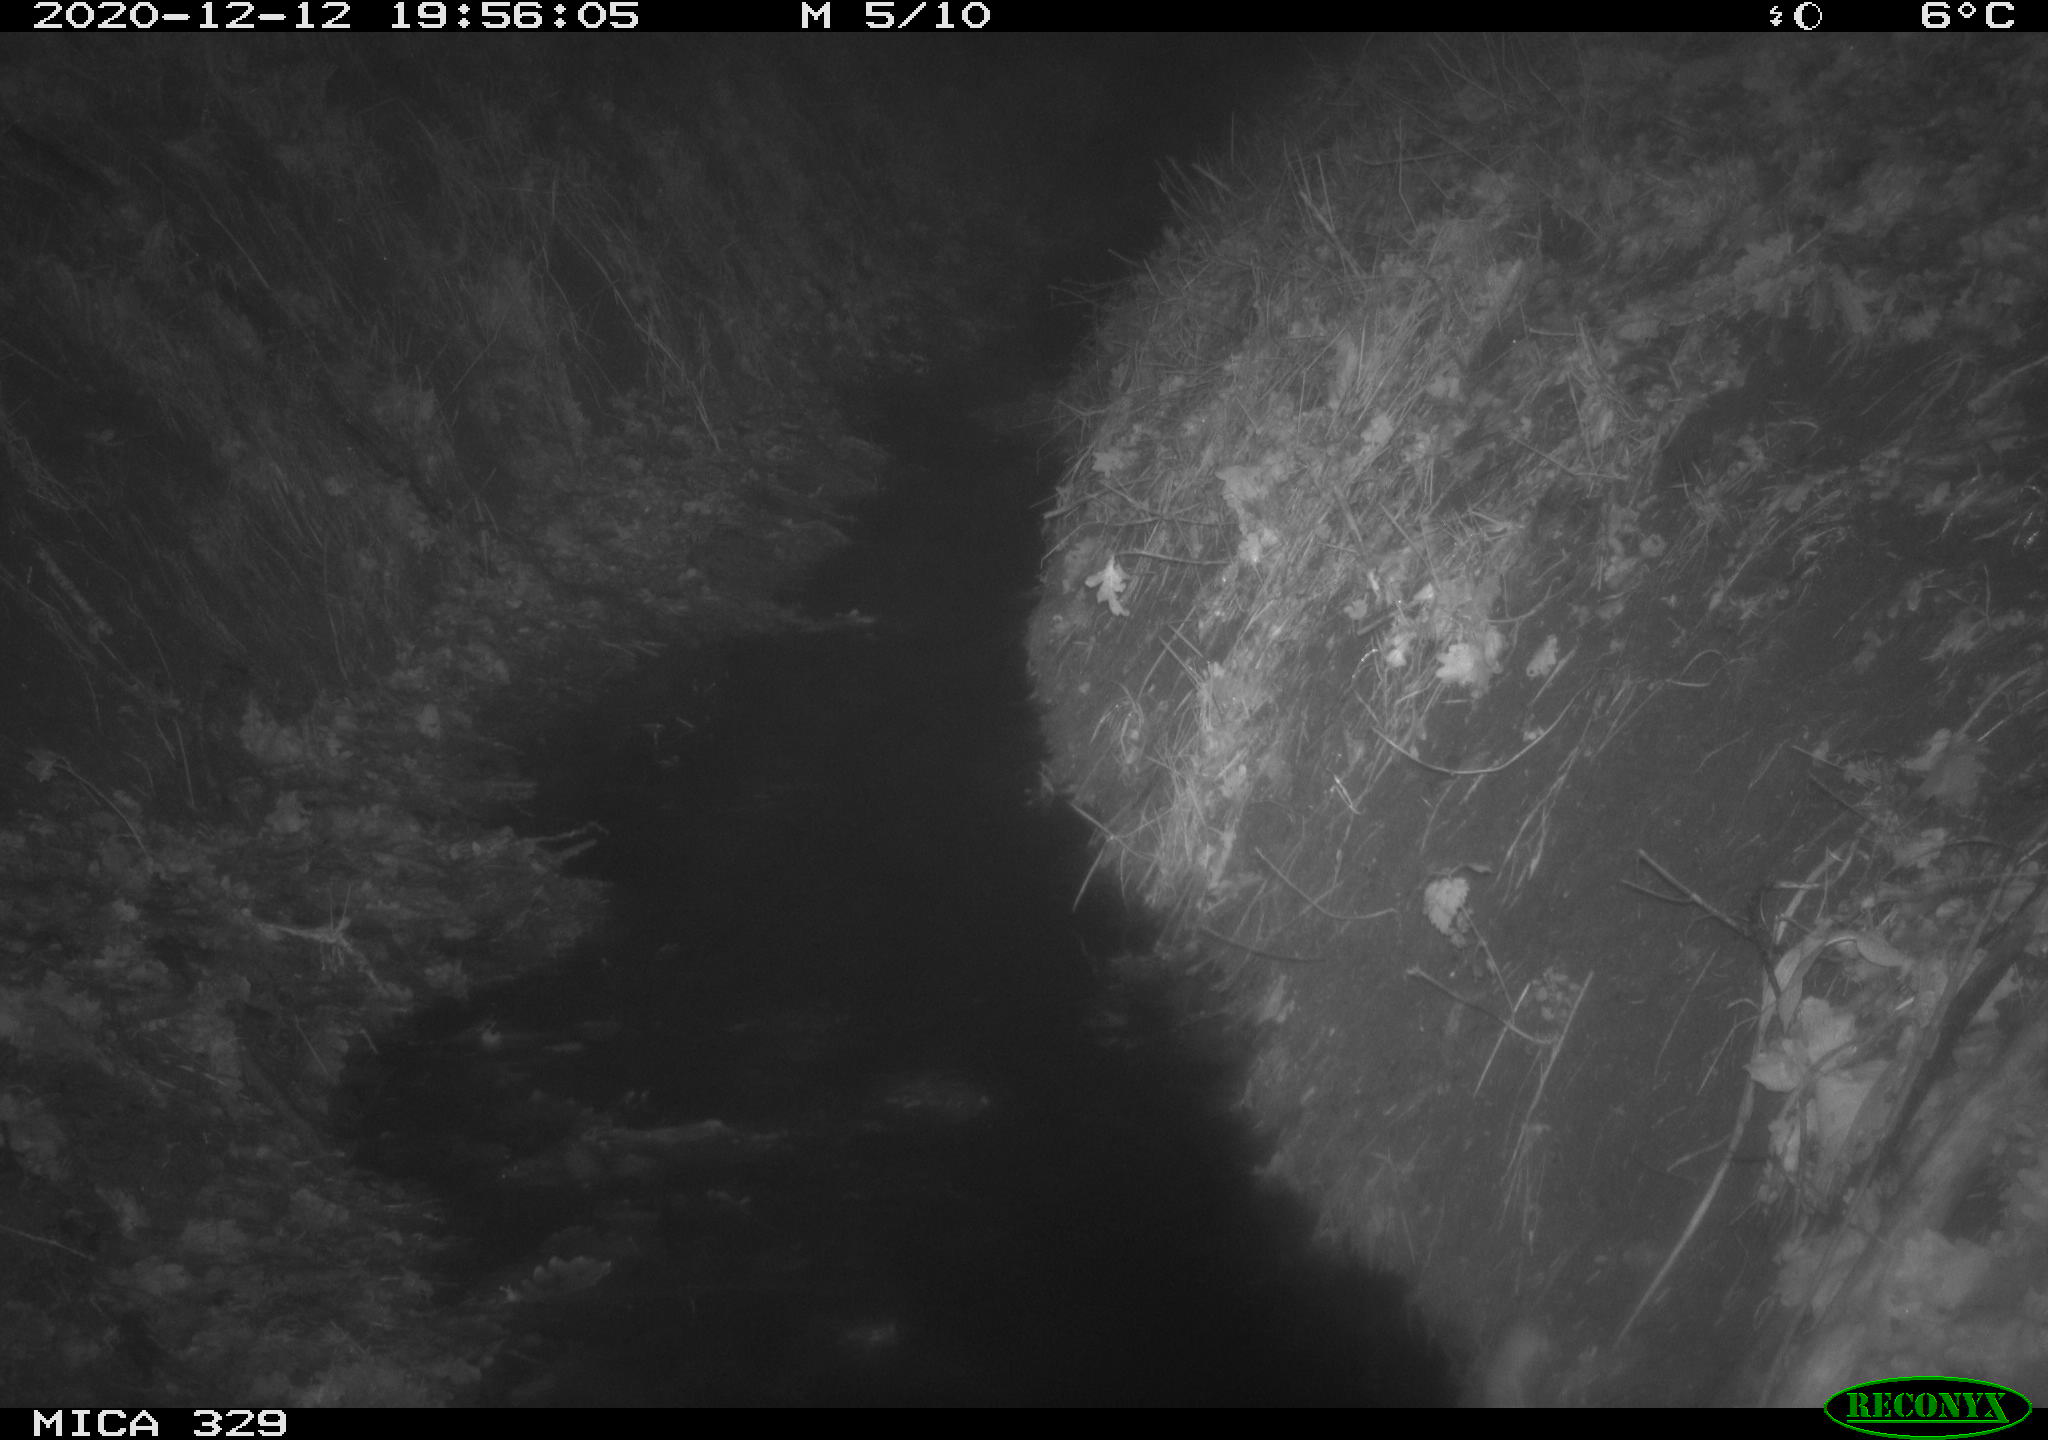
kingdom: Animalia
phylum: Chordata
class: Mammalia
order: Rodentia
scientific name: Rodentia
